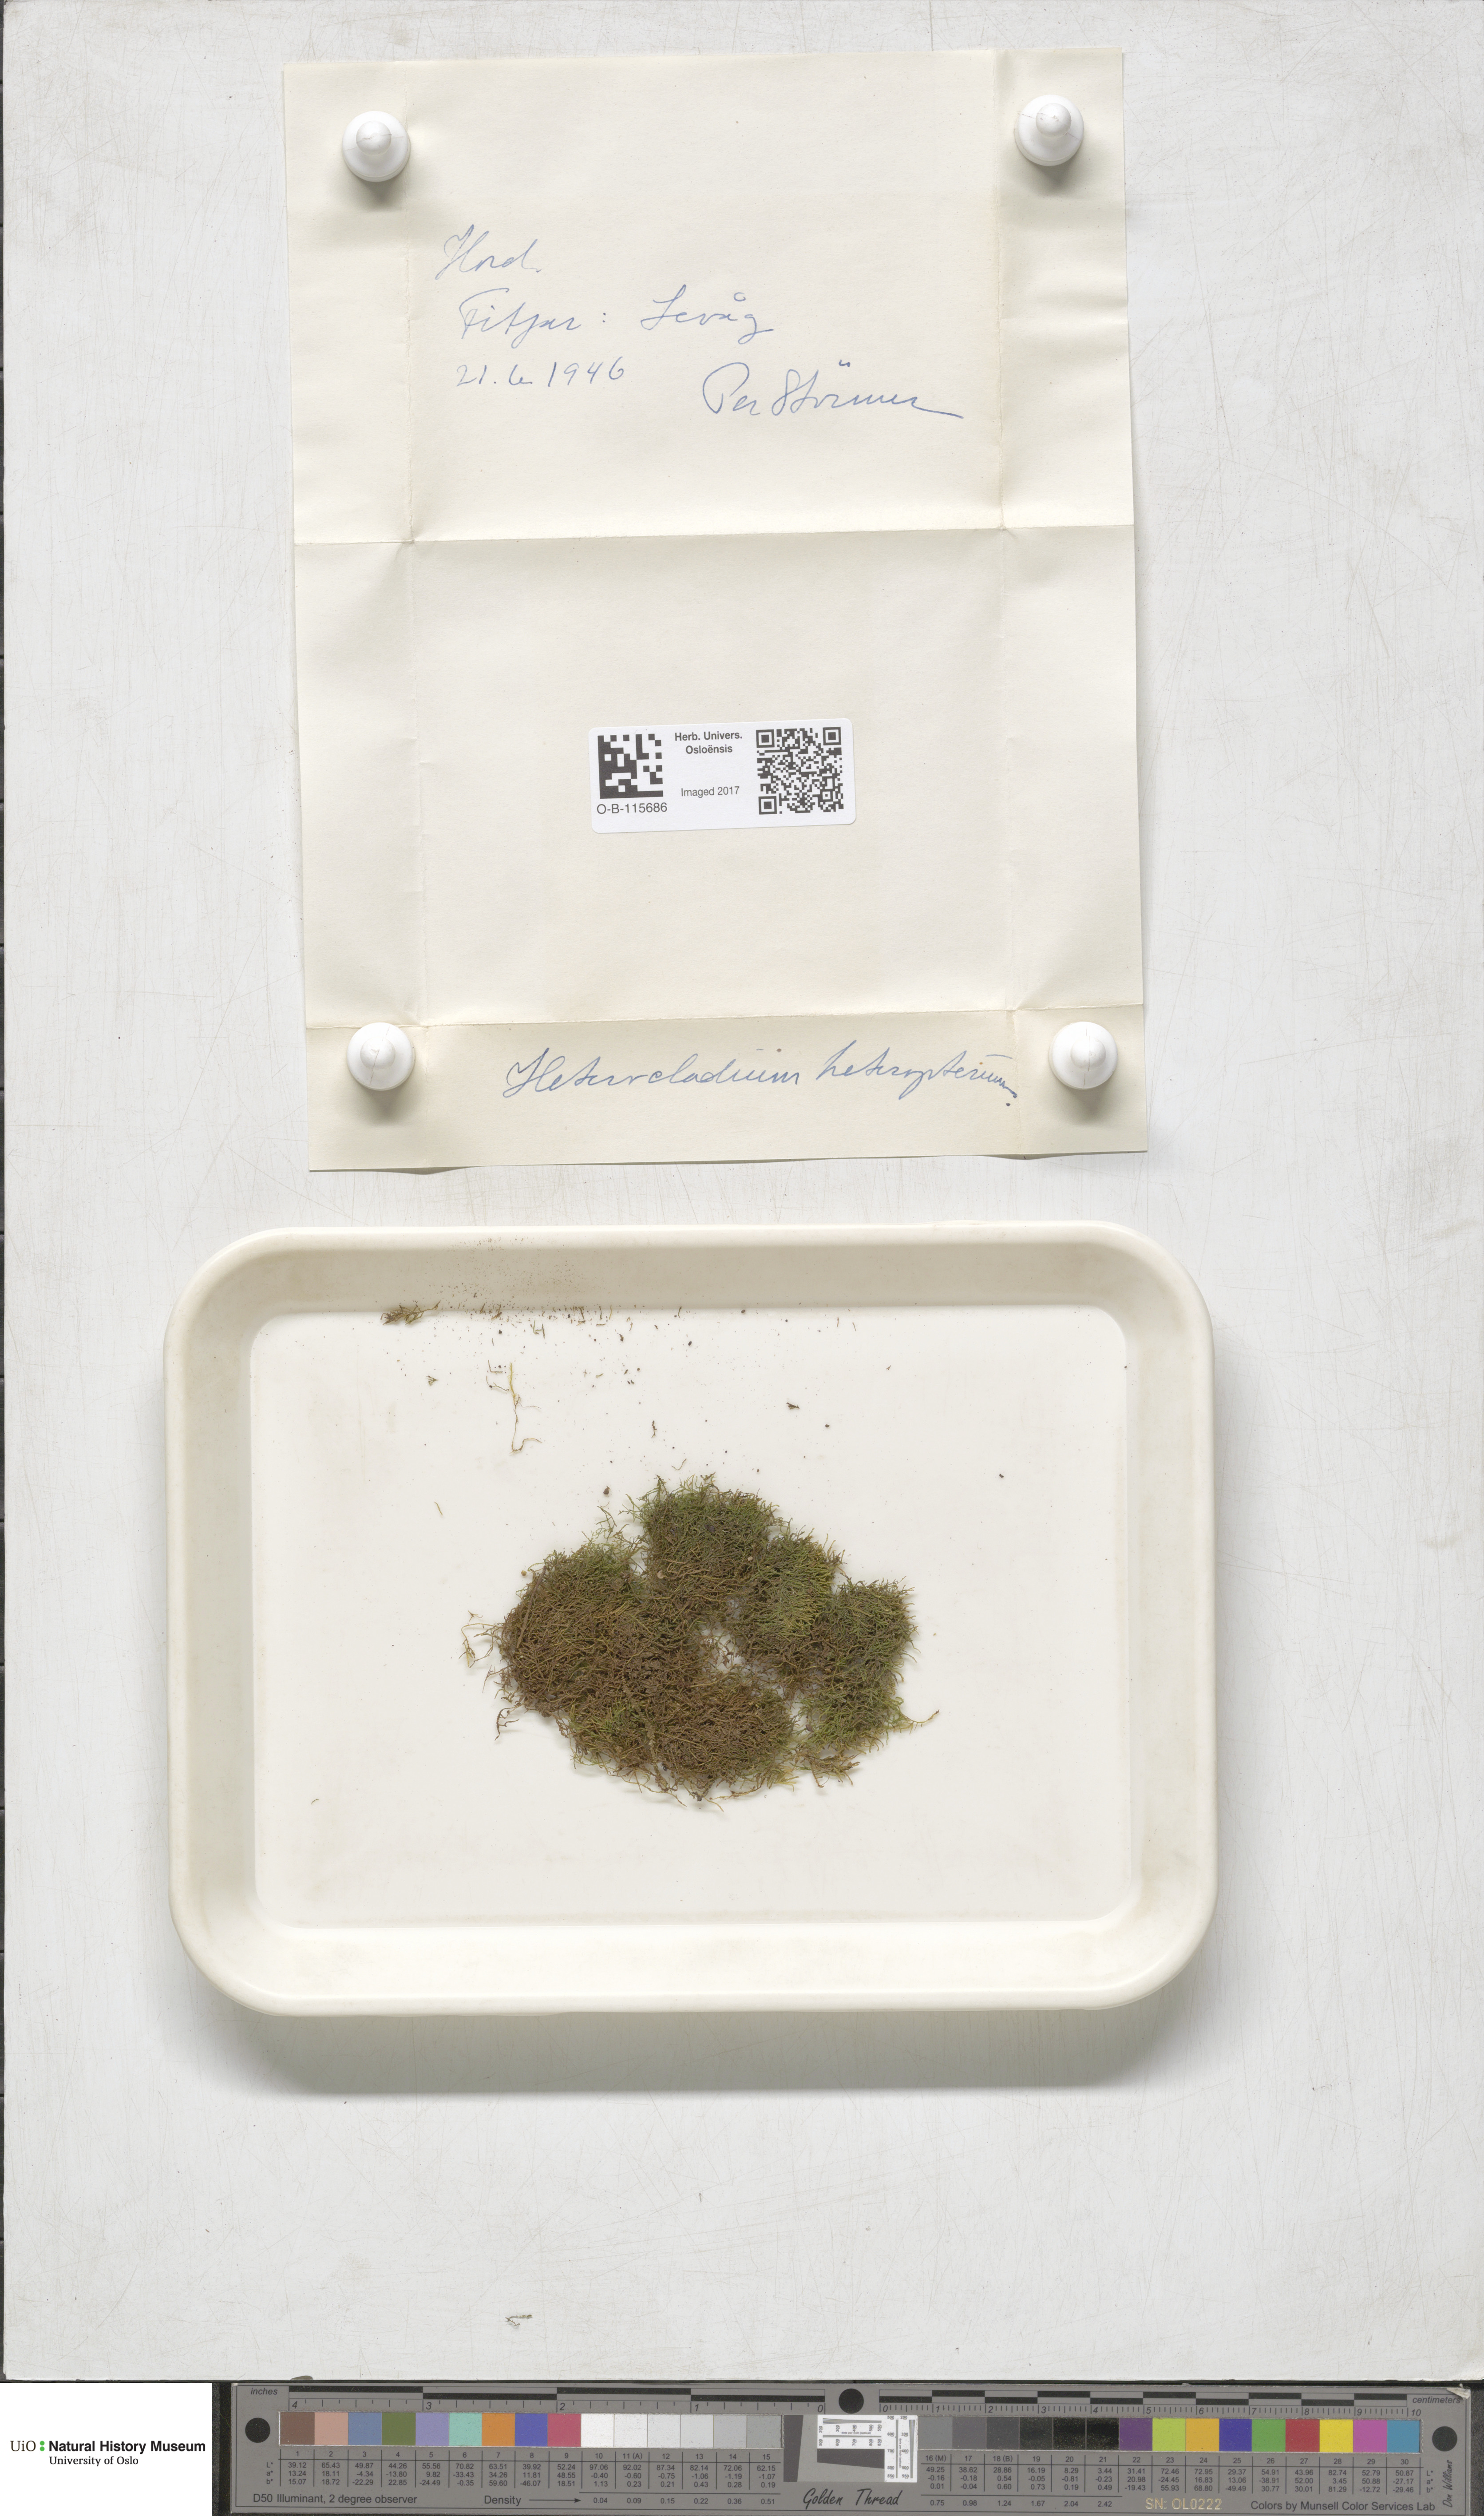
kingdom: Plantae
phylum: Bryophyta
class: Bryopsida
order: Hypnales
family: Lembophyllaceae
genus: Heterocladium
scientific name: Heterocladium heteropterum
